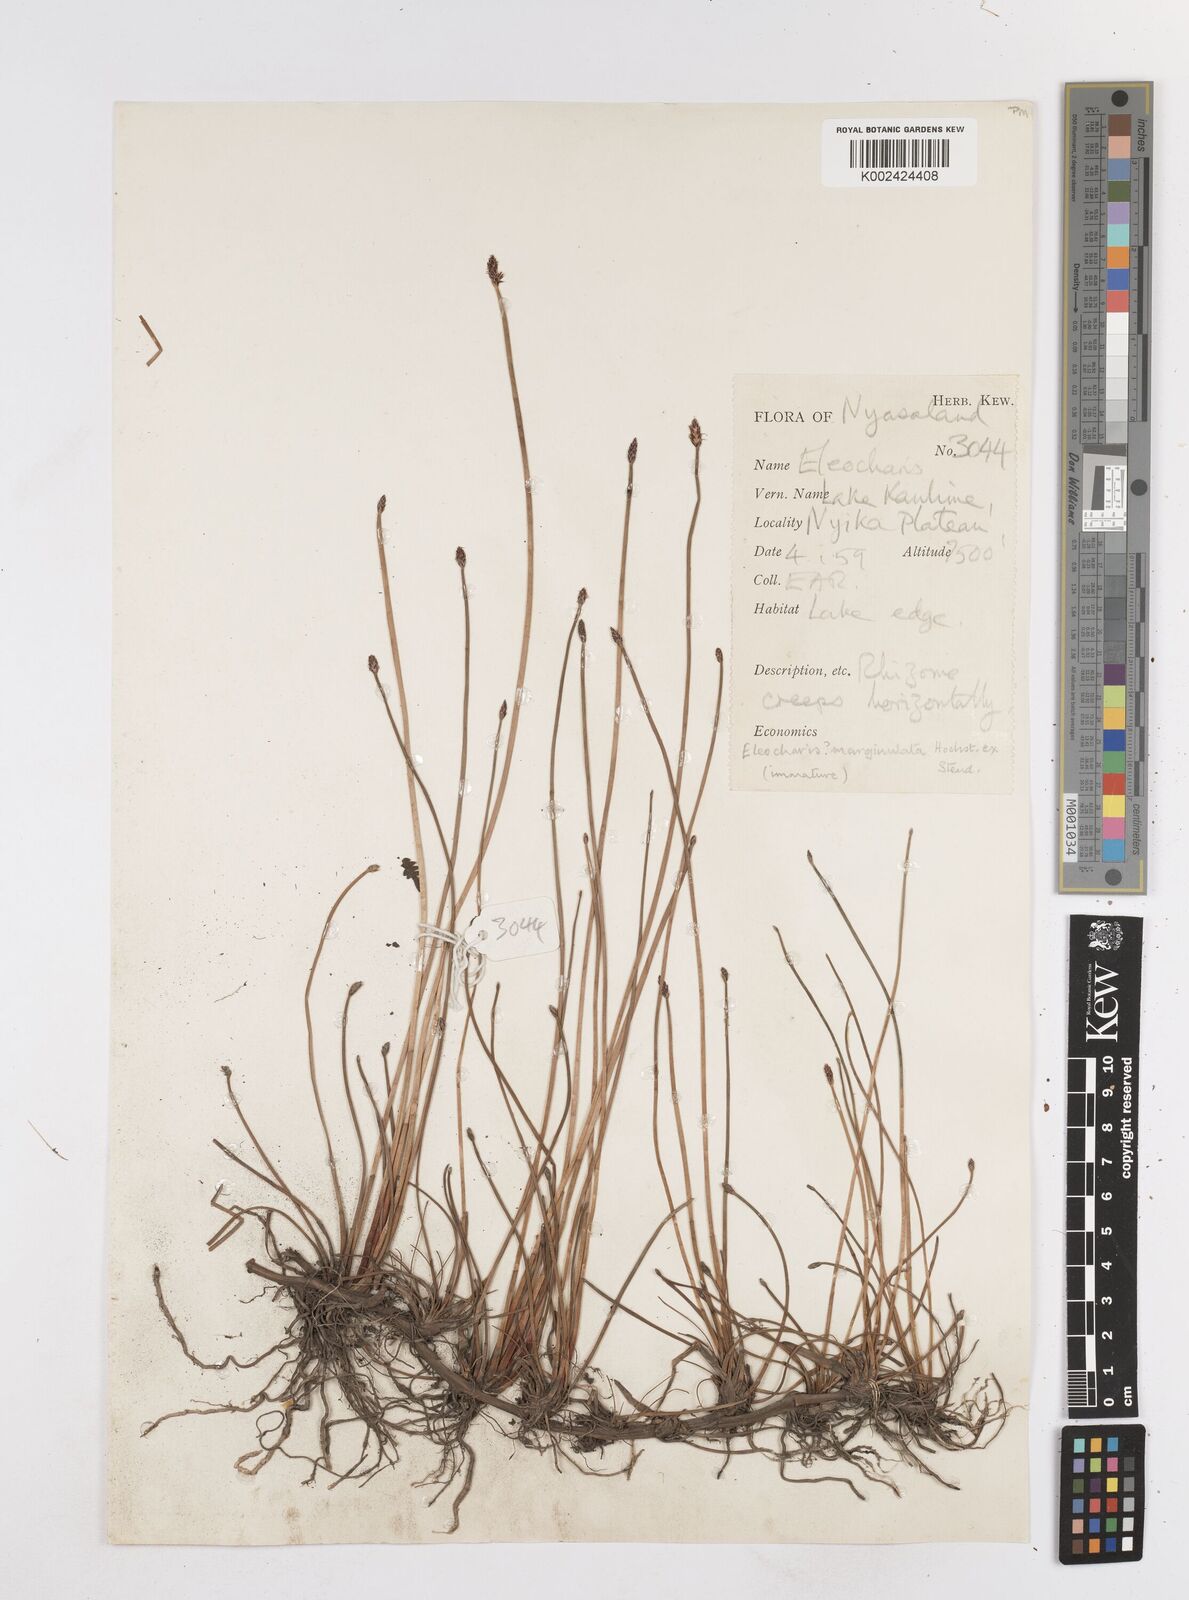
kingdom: Plantae
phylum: Tracheophyta
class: Liliopsida
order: Poales
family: Cyperaceae
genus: Eleocharis
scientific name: Eleocharis marginulata
